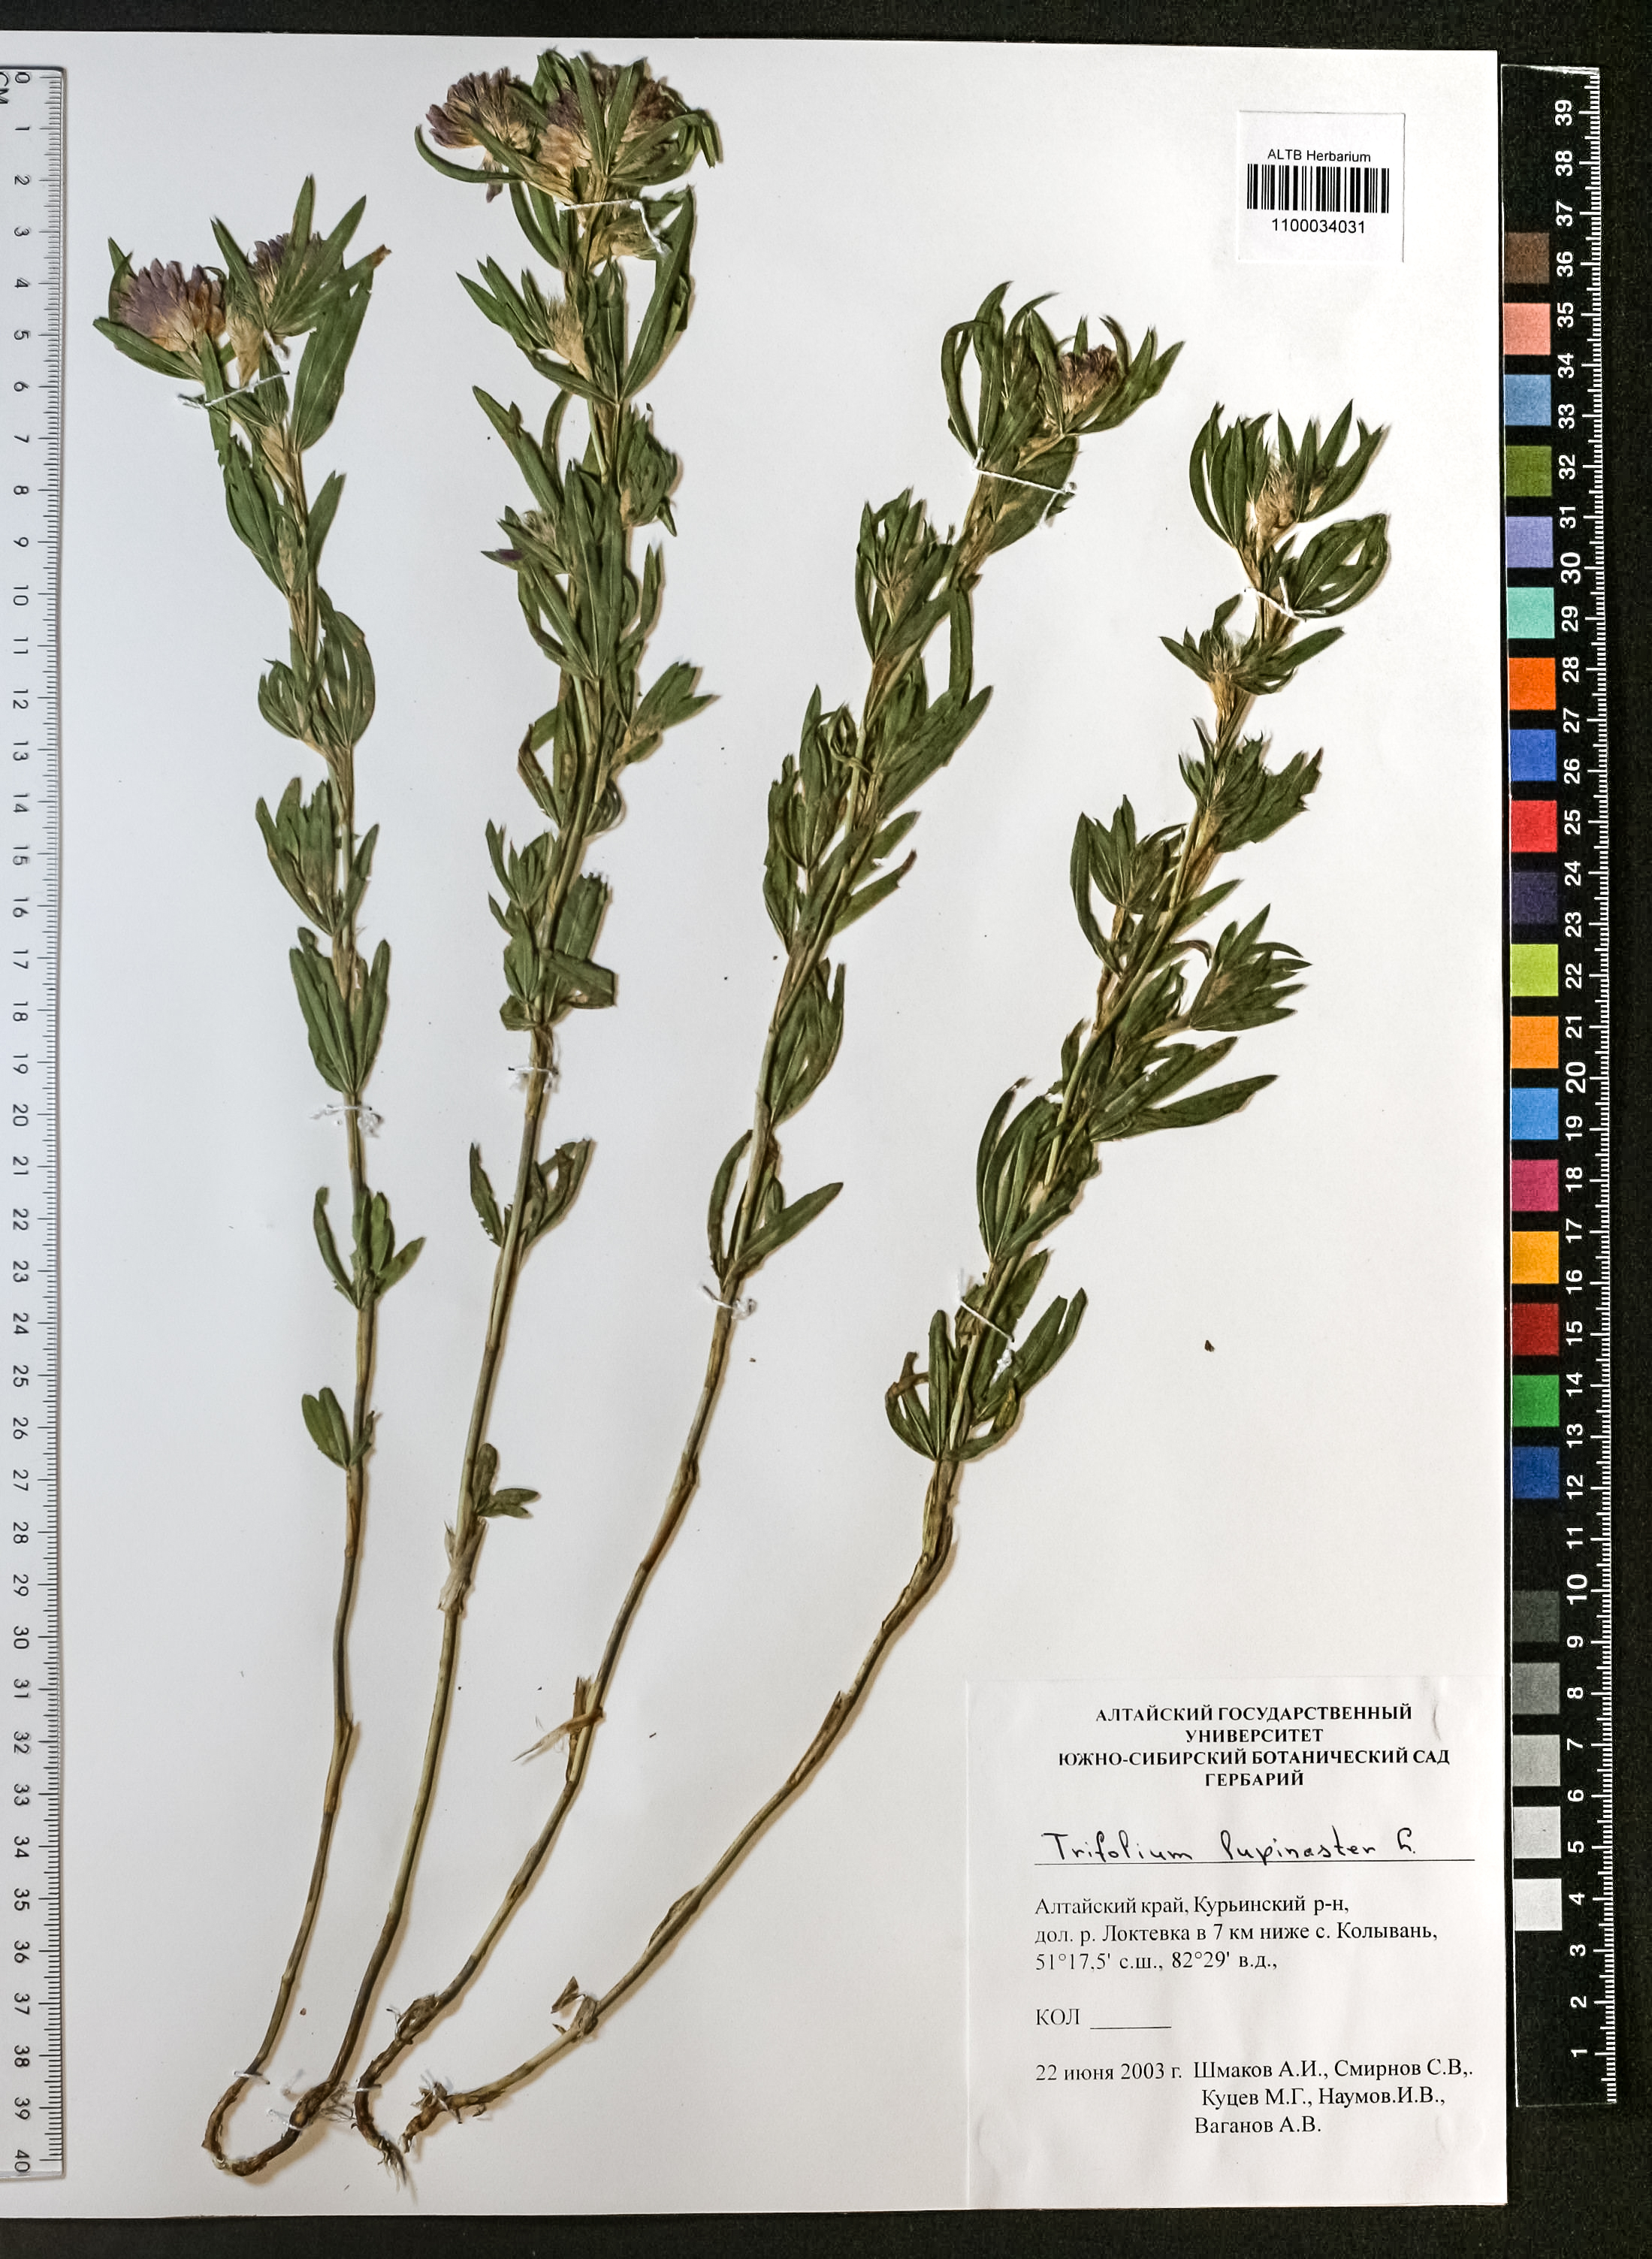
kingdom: Plantae
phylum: Tracheophyta
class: Magnoliopsida
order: Fabales
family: Fabaceae
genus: Trifolium
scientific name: Trifolium lupinaster
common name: Lupine clover
